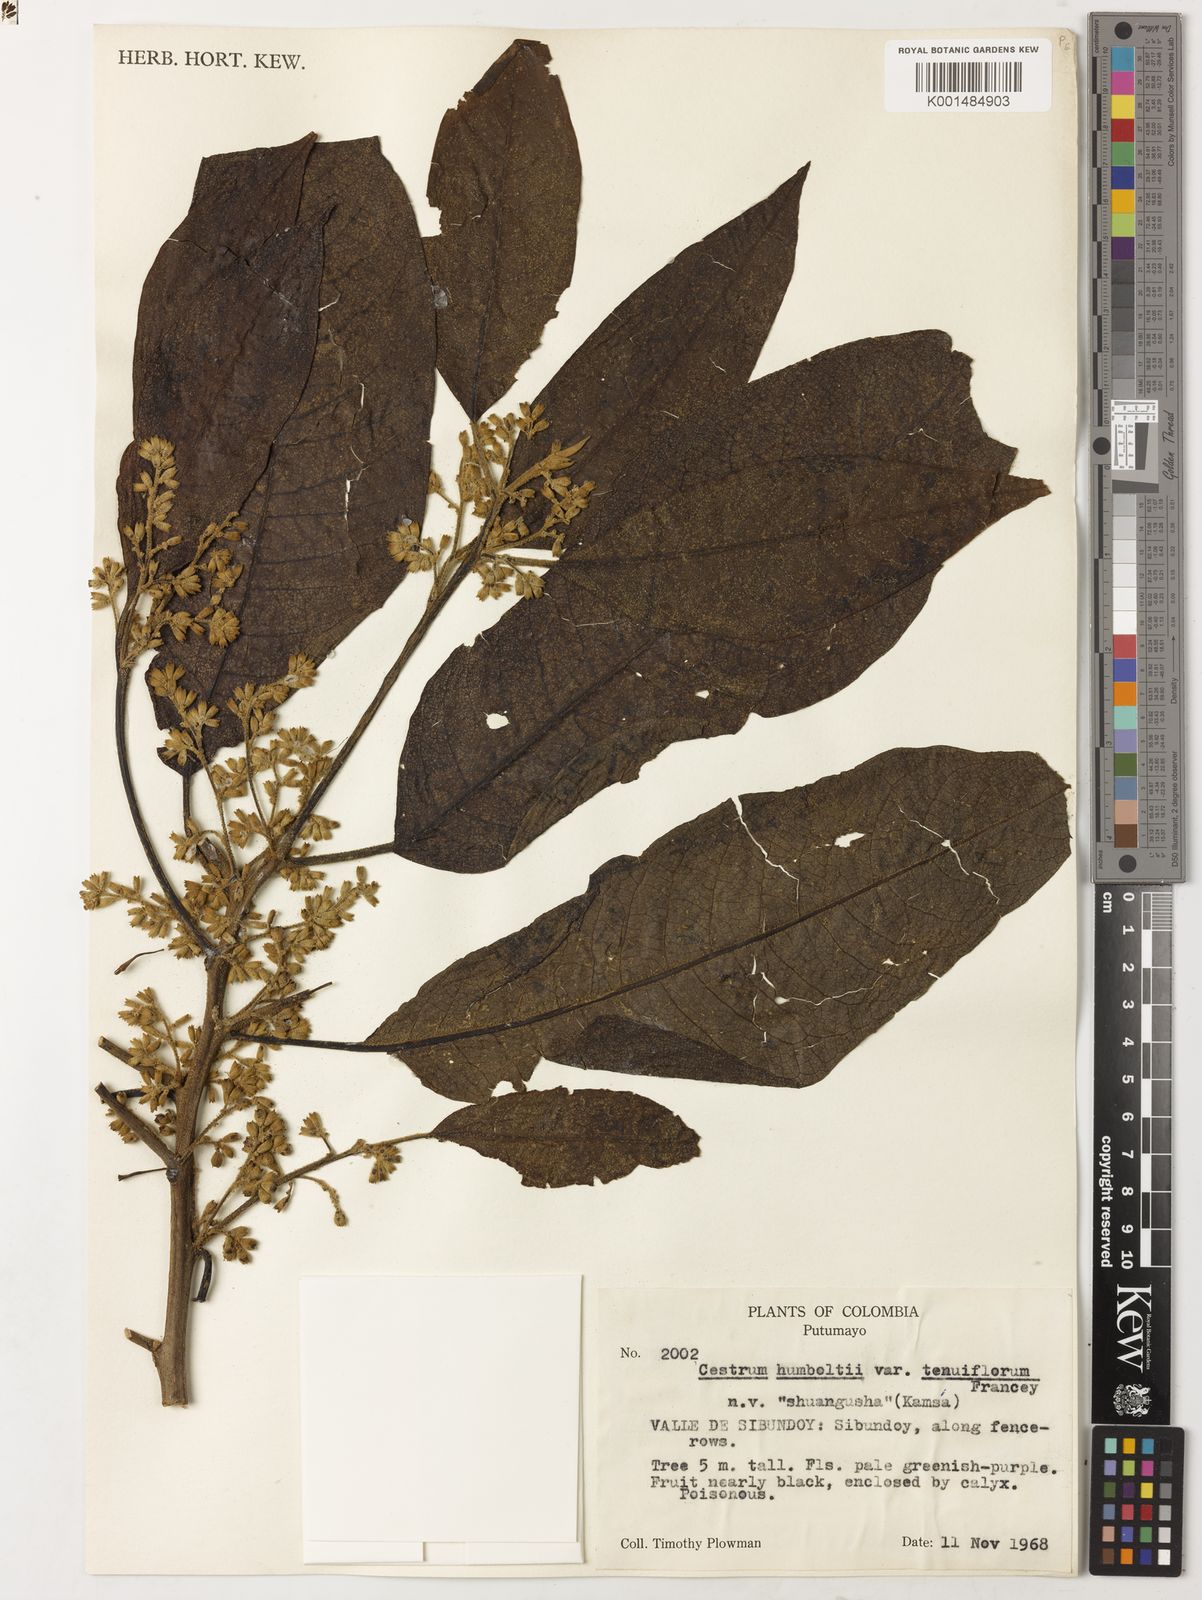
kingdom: Plantae
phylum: Tracheophyta
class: Magnoliopsida
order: Solanales
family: Solanaceae
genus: Cestrum
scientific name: Cestrum humboldtii
